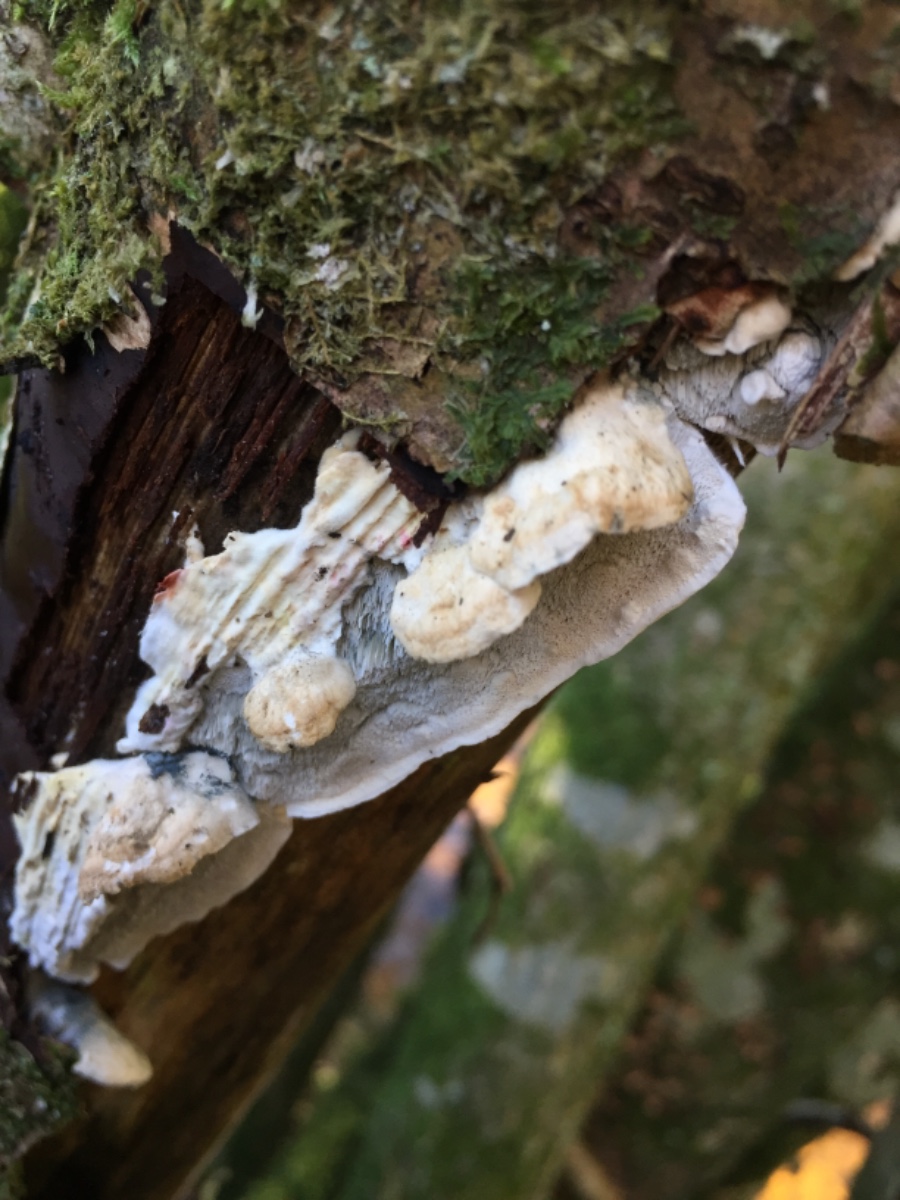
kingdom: Fungi
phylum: Basidiomycota
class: Agaricomycetes
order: Polyporales
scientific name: Polyporales
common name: poresvampordenen
